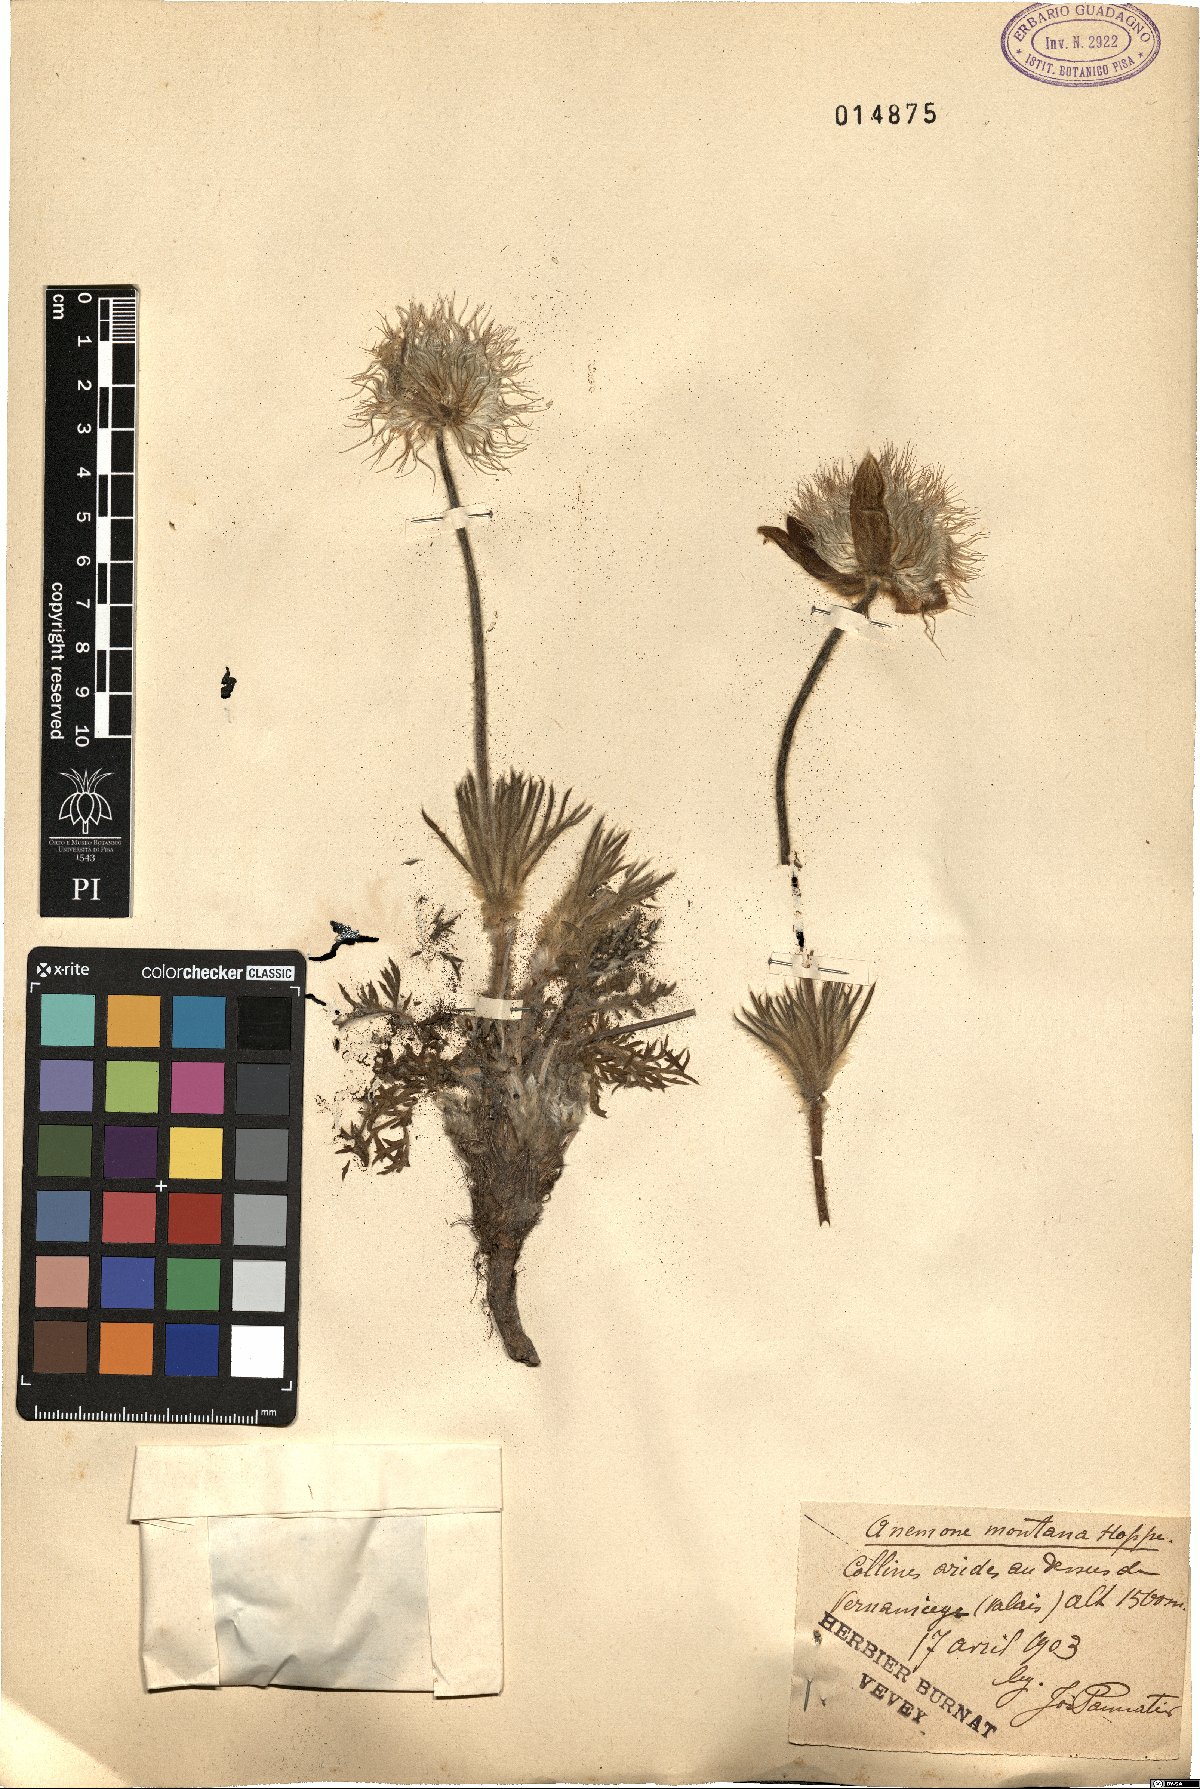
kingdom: Plantae
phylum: Tracheophyta
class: Magnoliopsida
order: Ranunculales
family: Ranunculaceae
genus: Pulsatilla
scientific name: Pulsatilla montana
